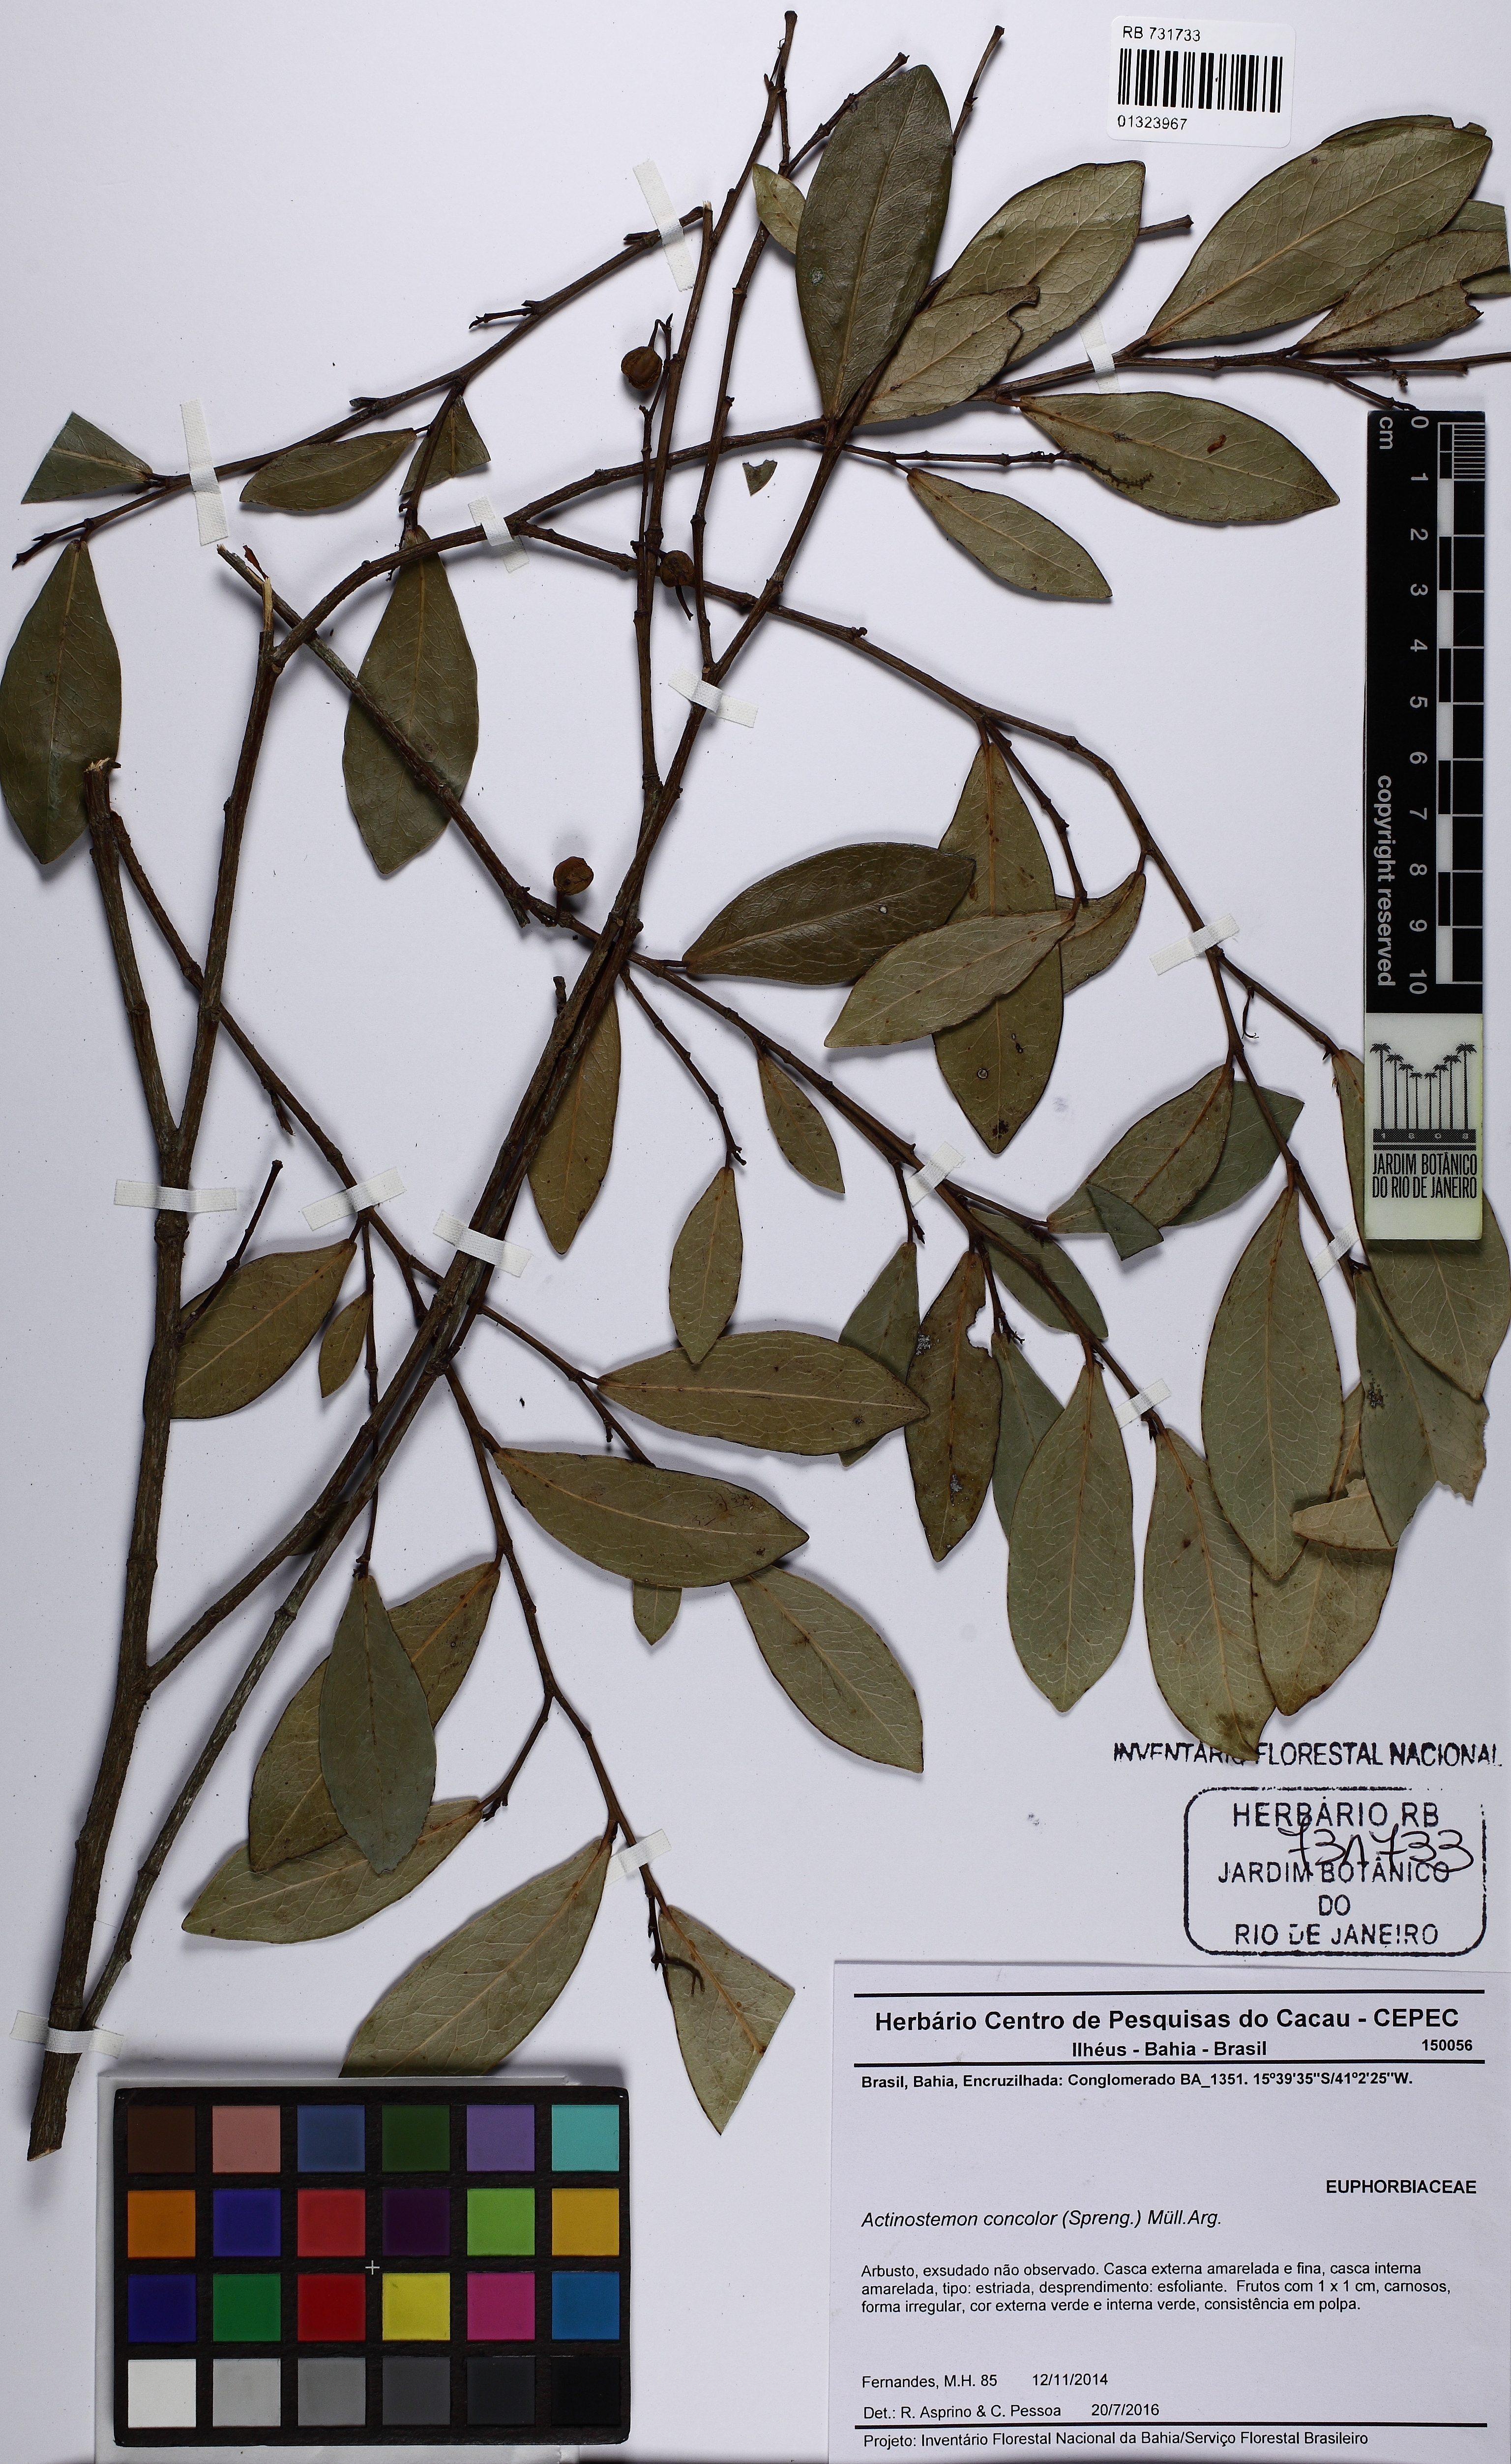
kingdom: Plantae
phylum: Tracheophyta
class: Magnoliopsida
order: Malpighiales
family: Euphorbiaceae
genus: Actinostemon
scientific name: Actinostemon concolor
